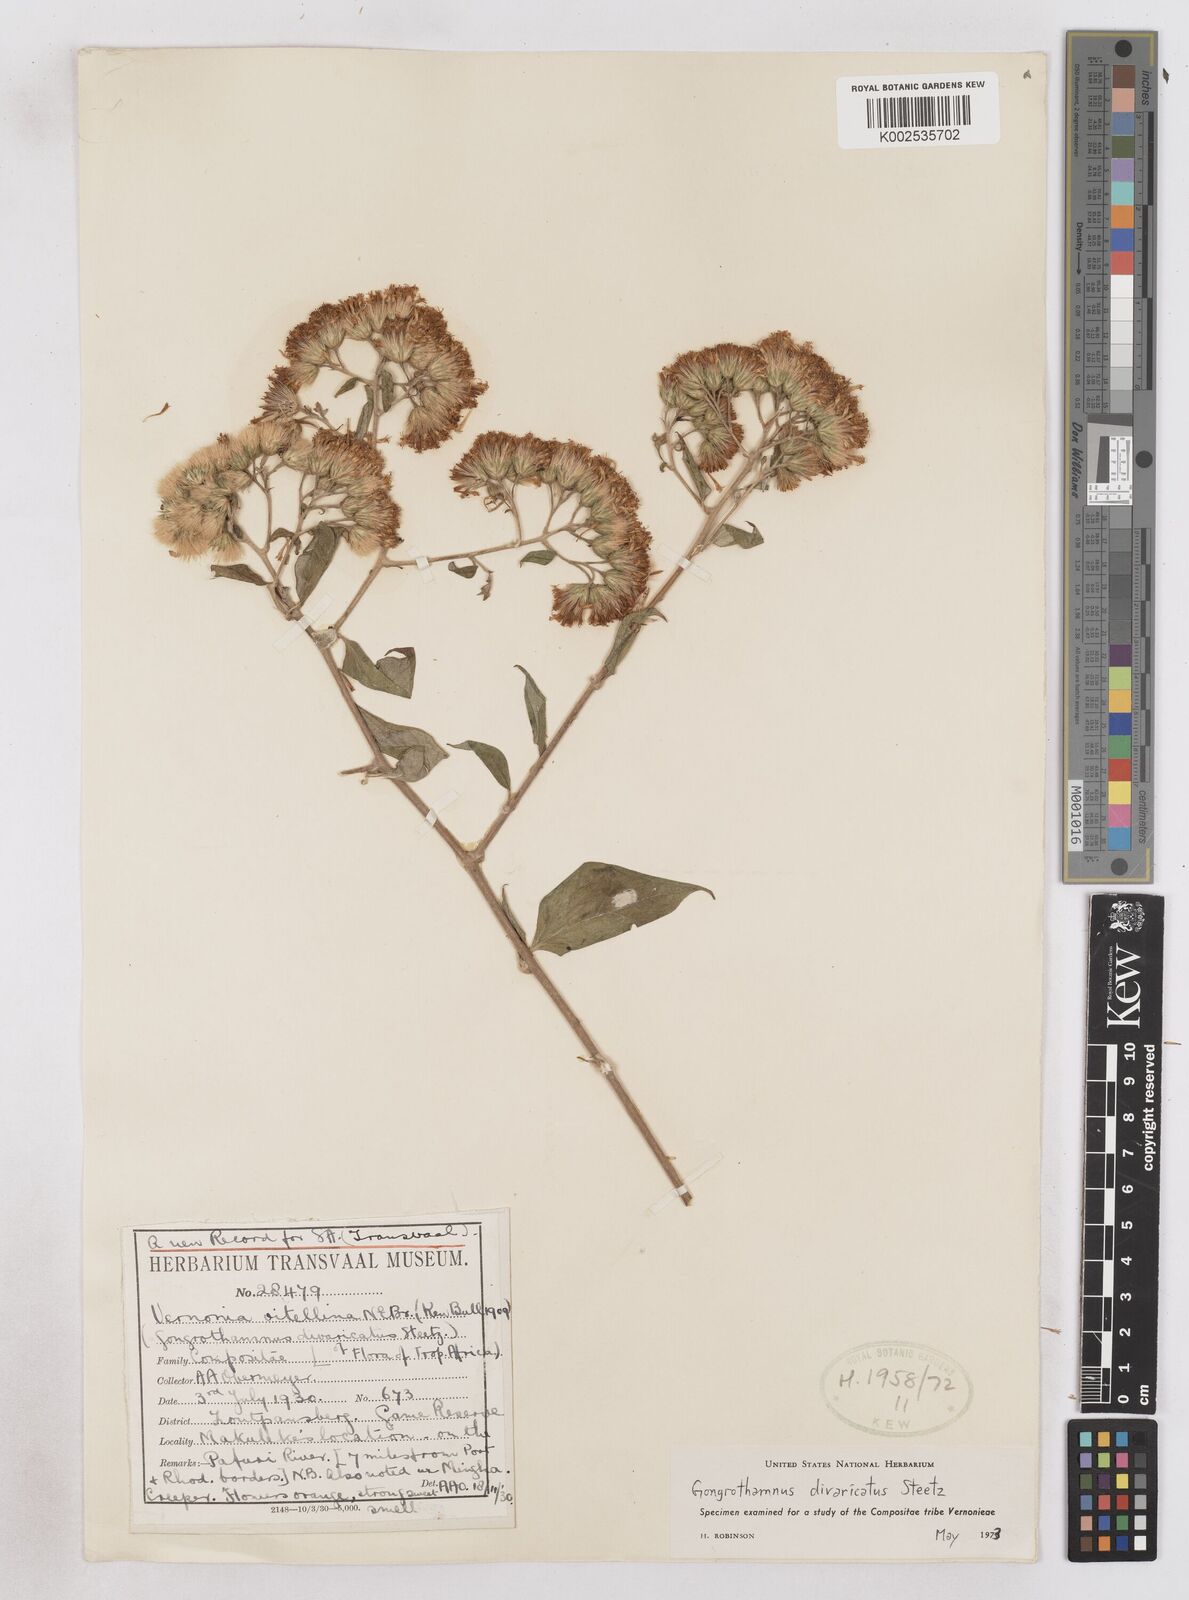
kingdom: Plantae
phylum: Tracheophyta
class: Magnoliopsida
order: Asterales
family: Asteraceae
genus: Distephanus
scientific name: Distephanus
